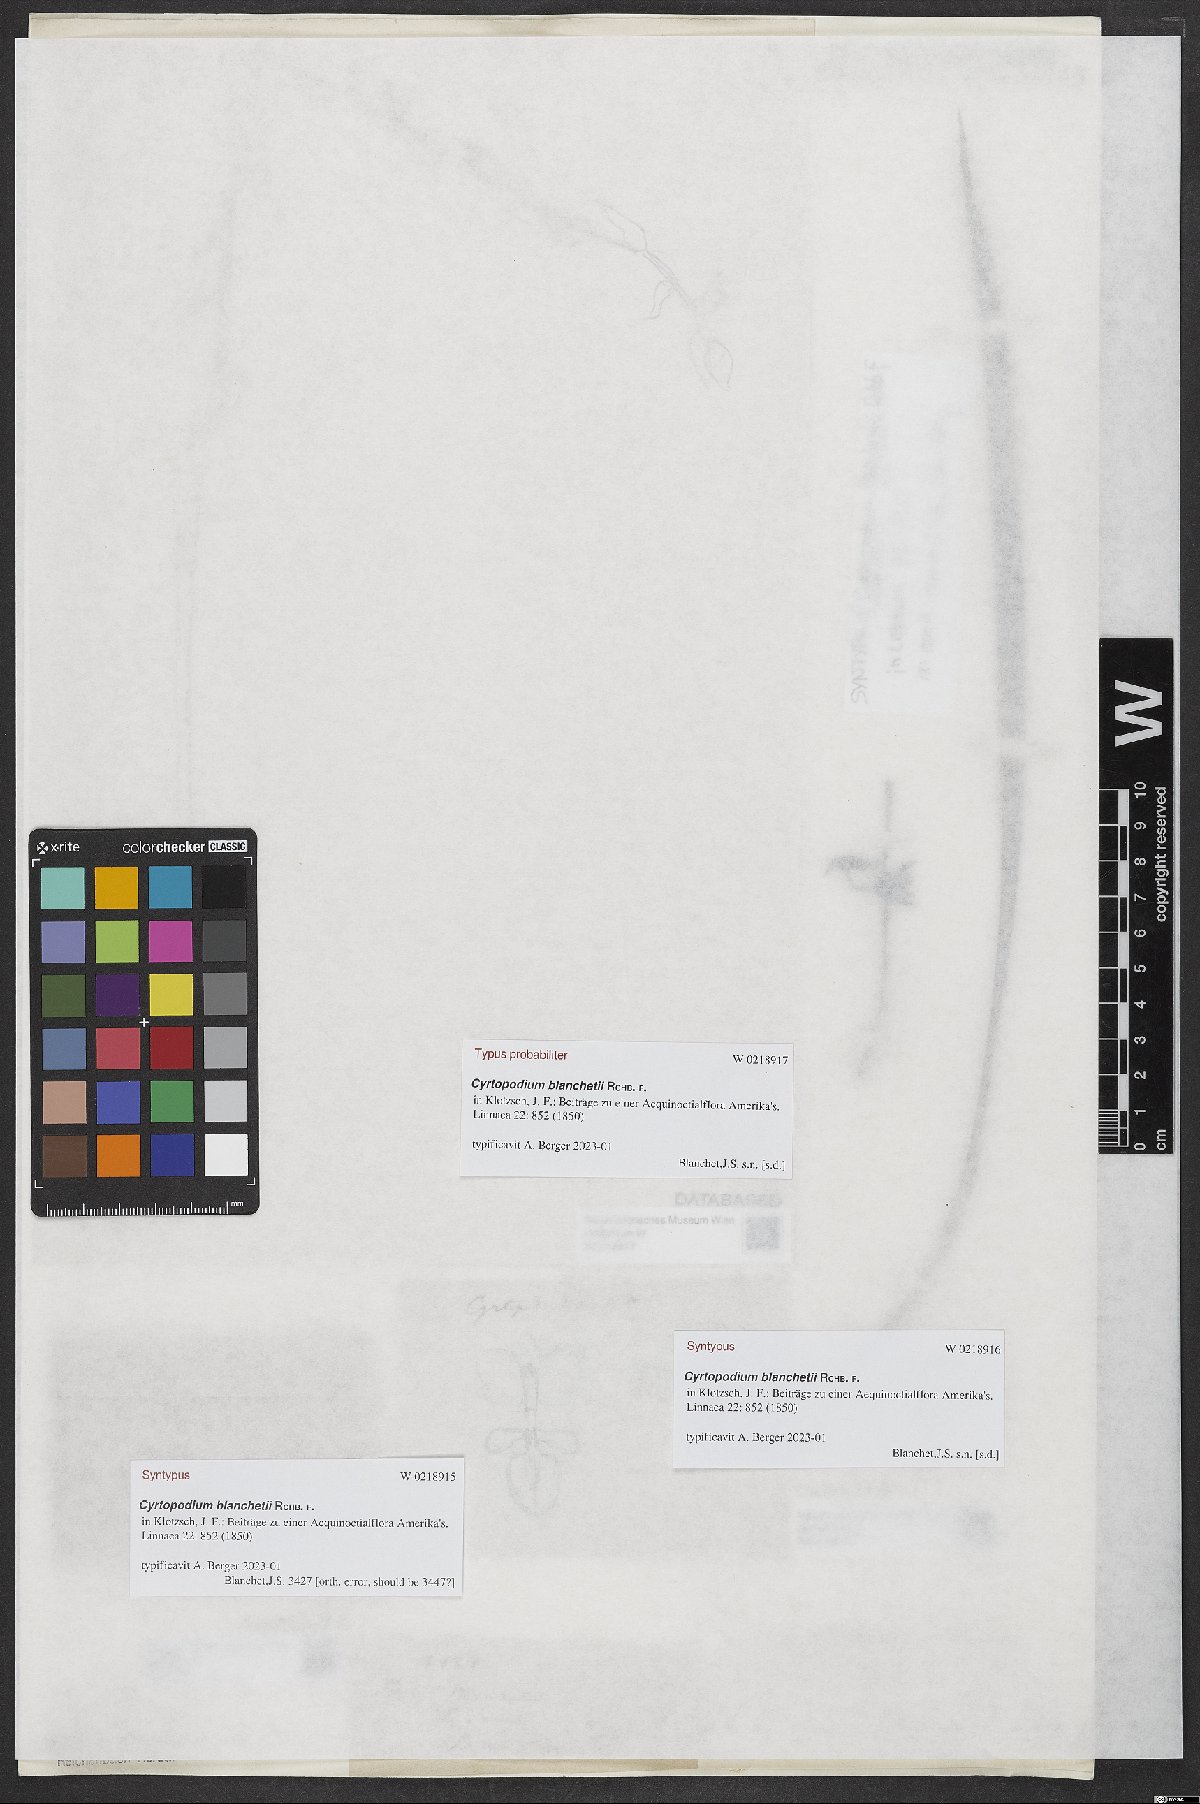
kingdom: Plantae
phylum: Tracheophyta
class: Liliopsida
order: Asparagales
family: Orchidaceae
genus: Cyrtopodium
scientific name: Cyrtopodium blanchetii
